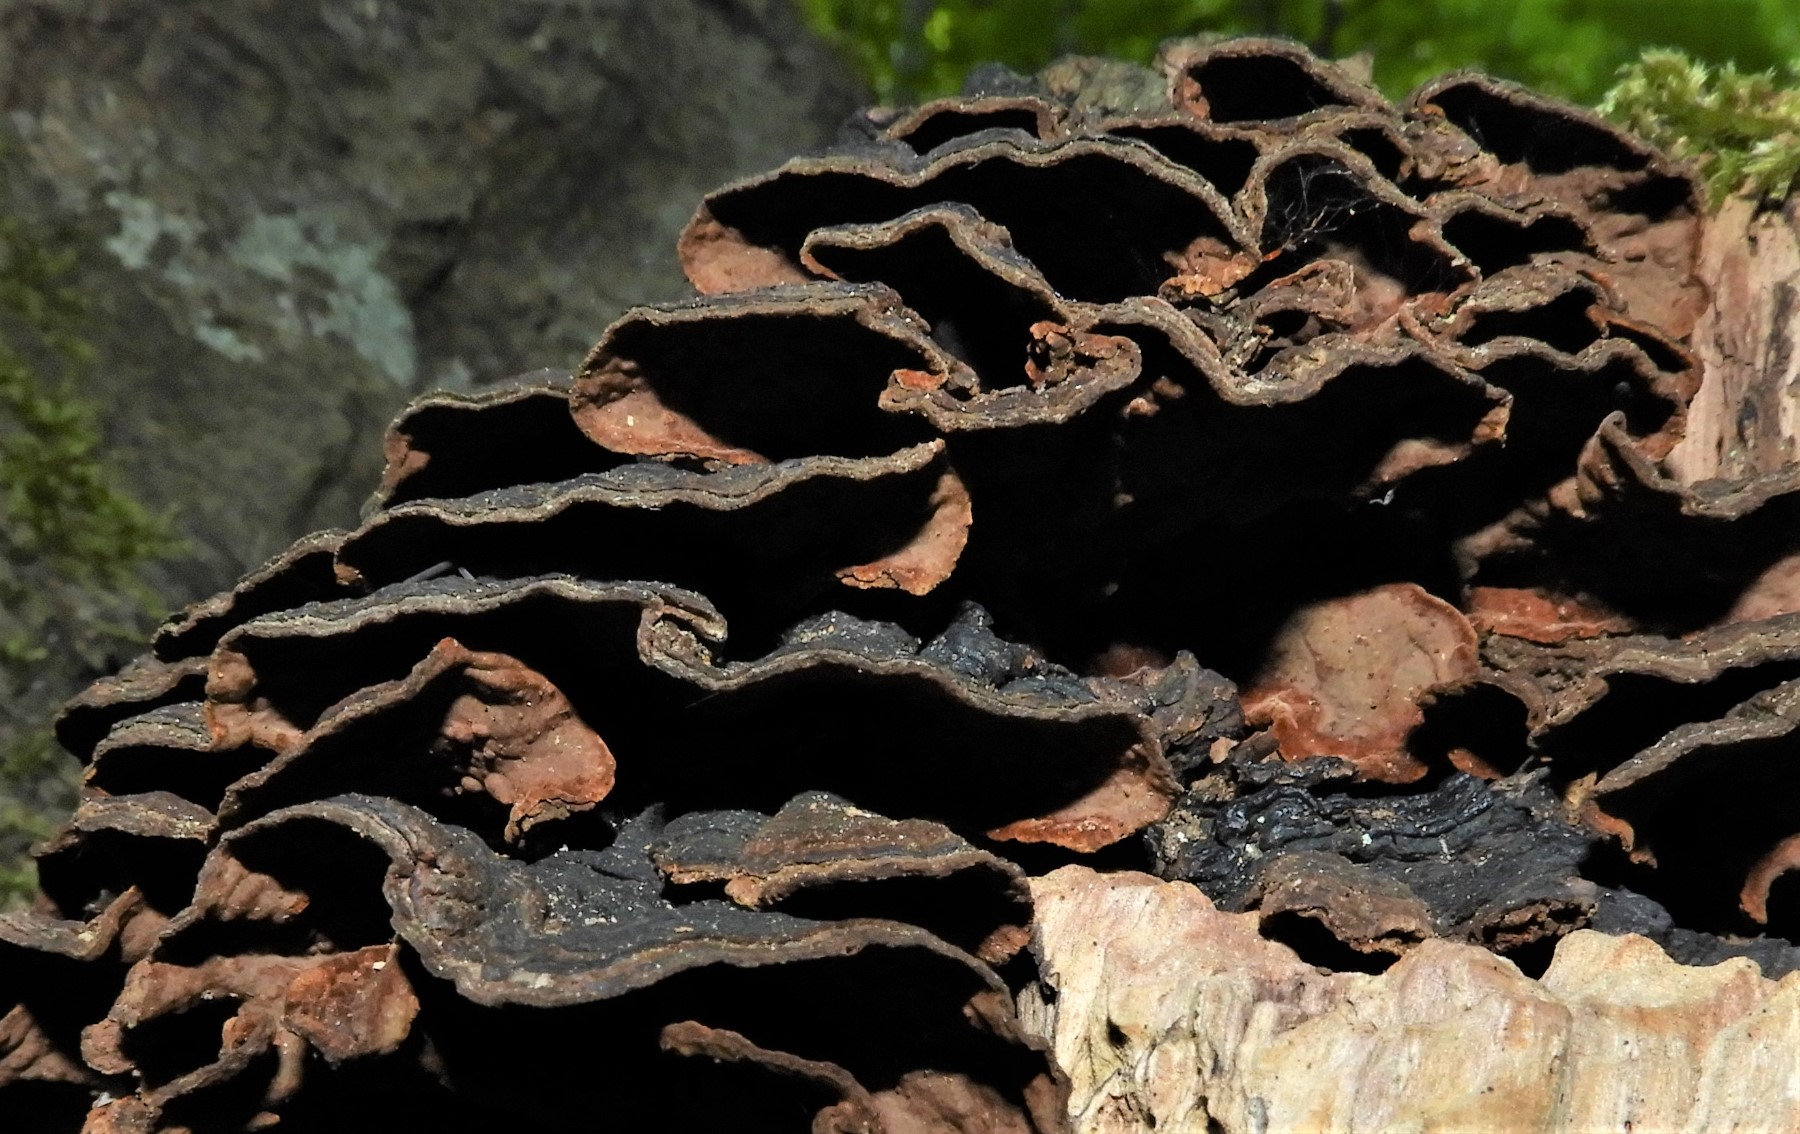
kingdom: Fungi
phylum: Basidiomycota
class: Agaricomycetes
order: Hymenochaetales
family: Hymenochaetaceae
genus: Hymenochaete
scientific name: Hymenochaete rubiginosa
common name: stiv ruslædersvamp
